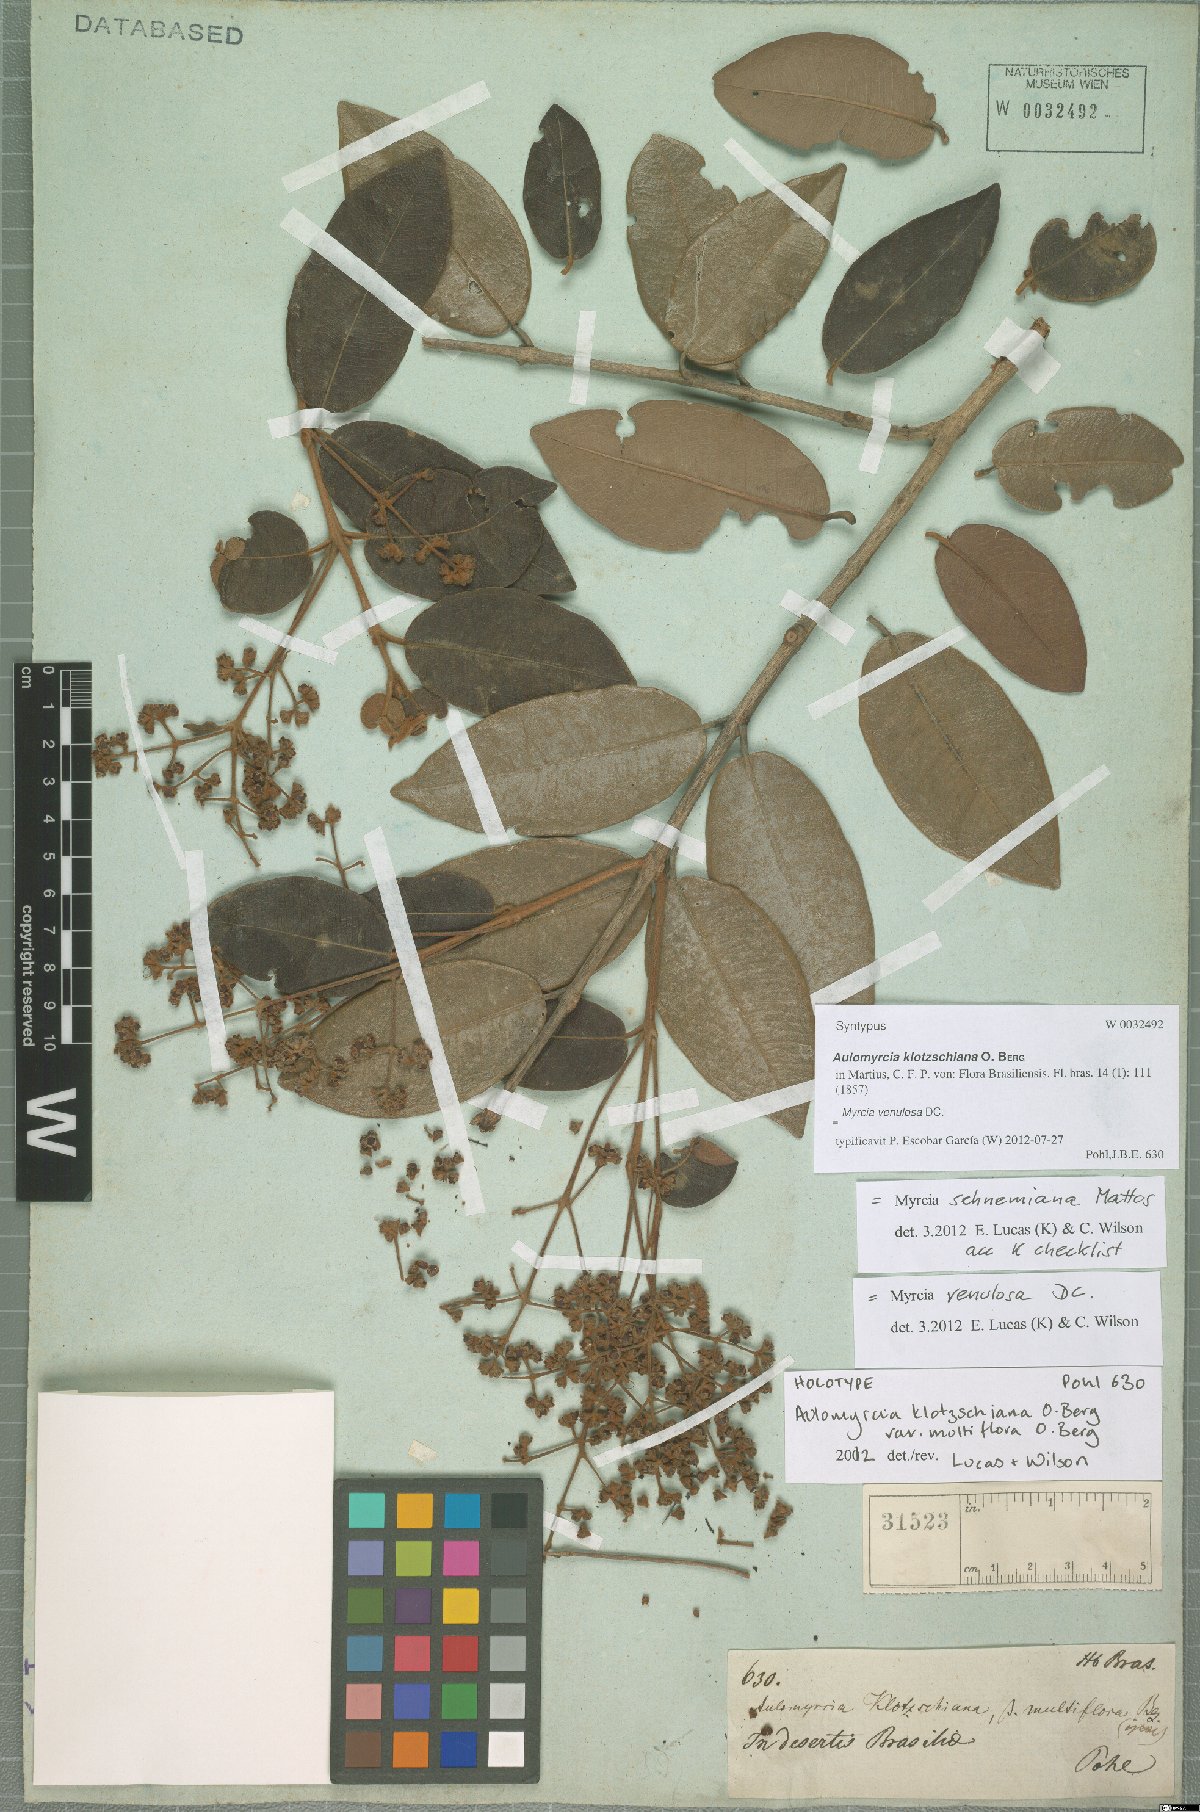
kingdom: Plantae
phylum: Tracheophyta
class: Magnoliopsida
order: Myrtales
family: Myrtaceae
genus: Myrcia
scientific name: Myrcia venulosa
